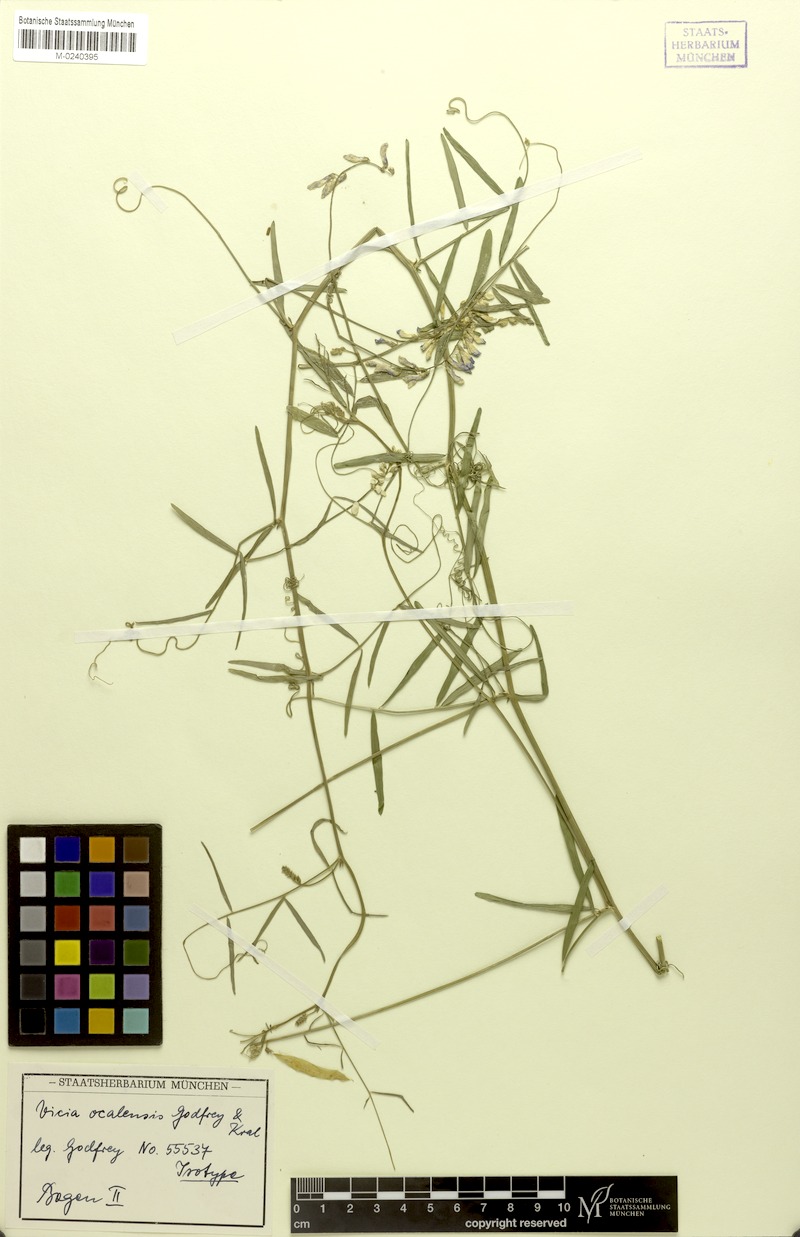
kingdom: Plantae
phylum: Tracheophyta
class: Magnoliopsida
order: Fabales
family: Fabaceae
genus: Vicia
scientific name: Vicia ocalensis
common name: Ocala vetch
